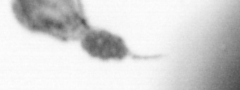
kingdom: Animalia
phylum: Arthropoda
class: Copepoda
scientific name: Copepoda
